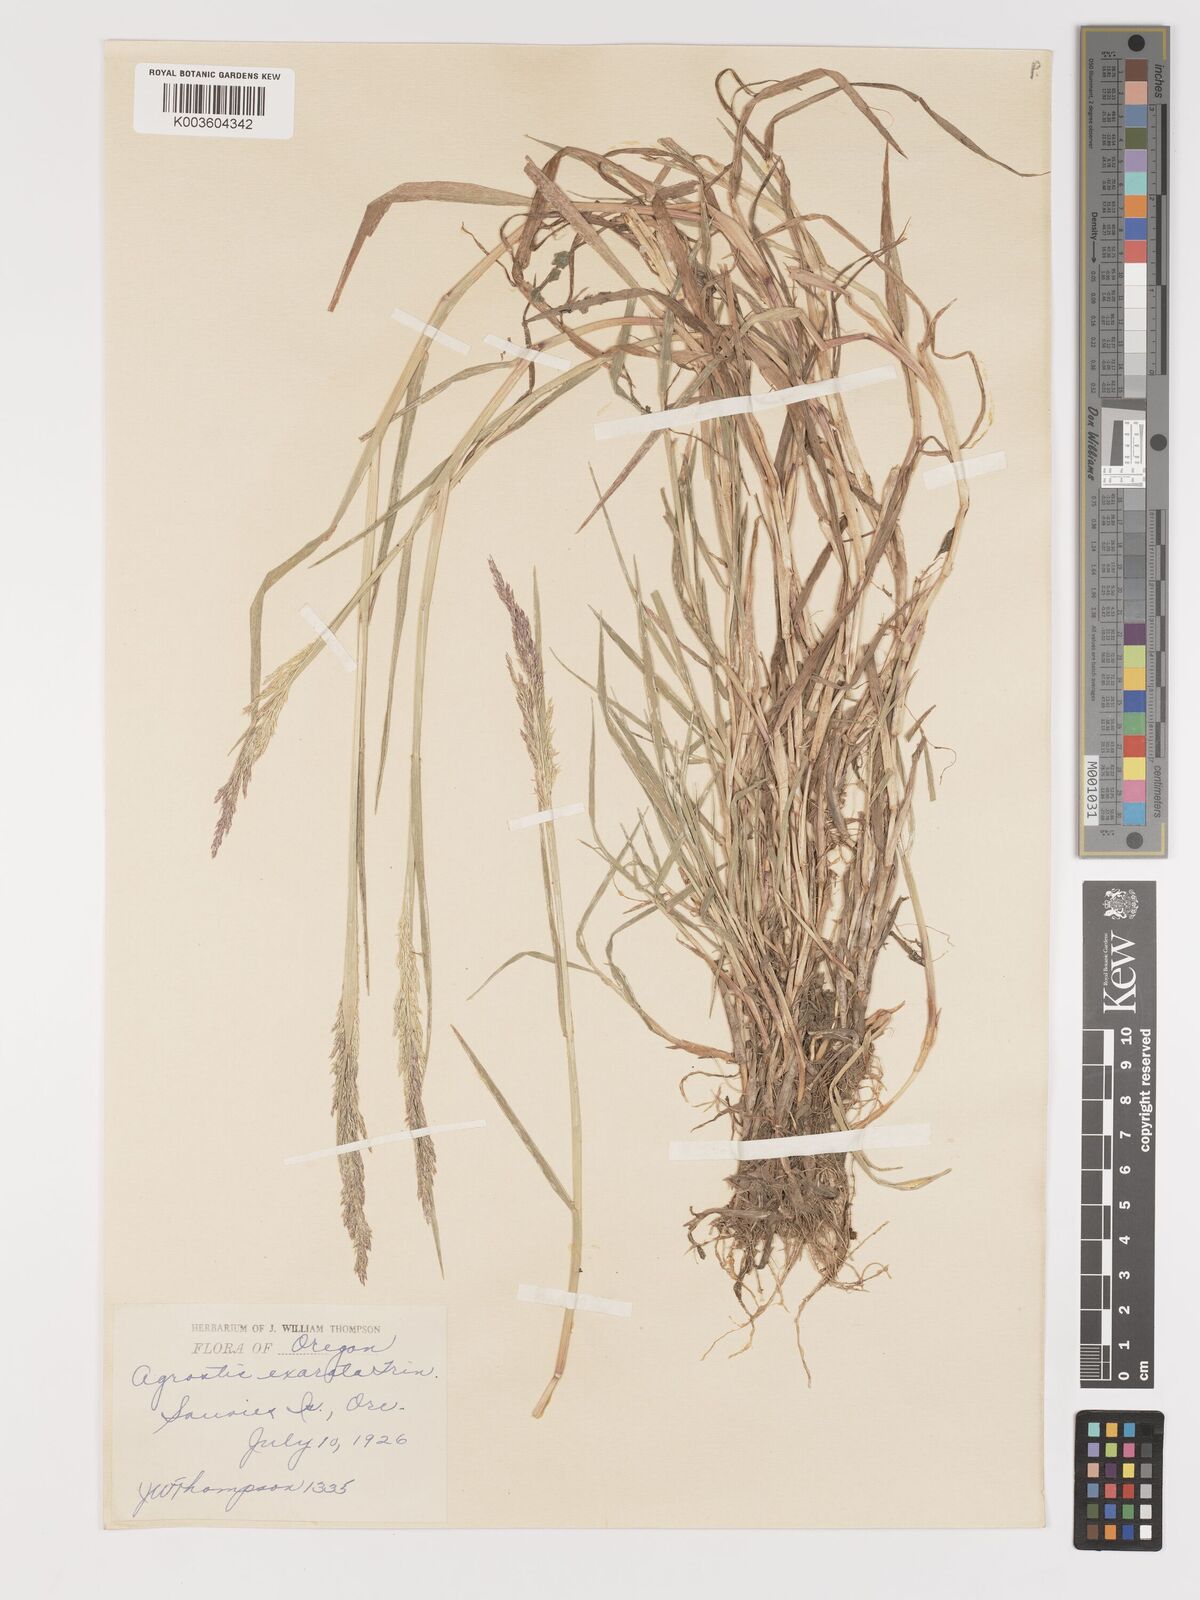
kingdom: Plantae
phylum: Tracheophyta
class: Liliopsida
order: Poales
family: Poaceae
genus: Agrostis
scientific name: Agrostis exarata
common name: Spike bent
